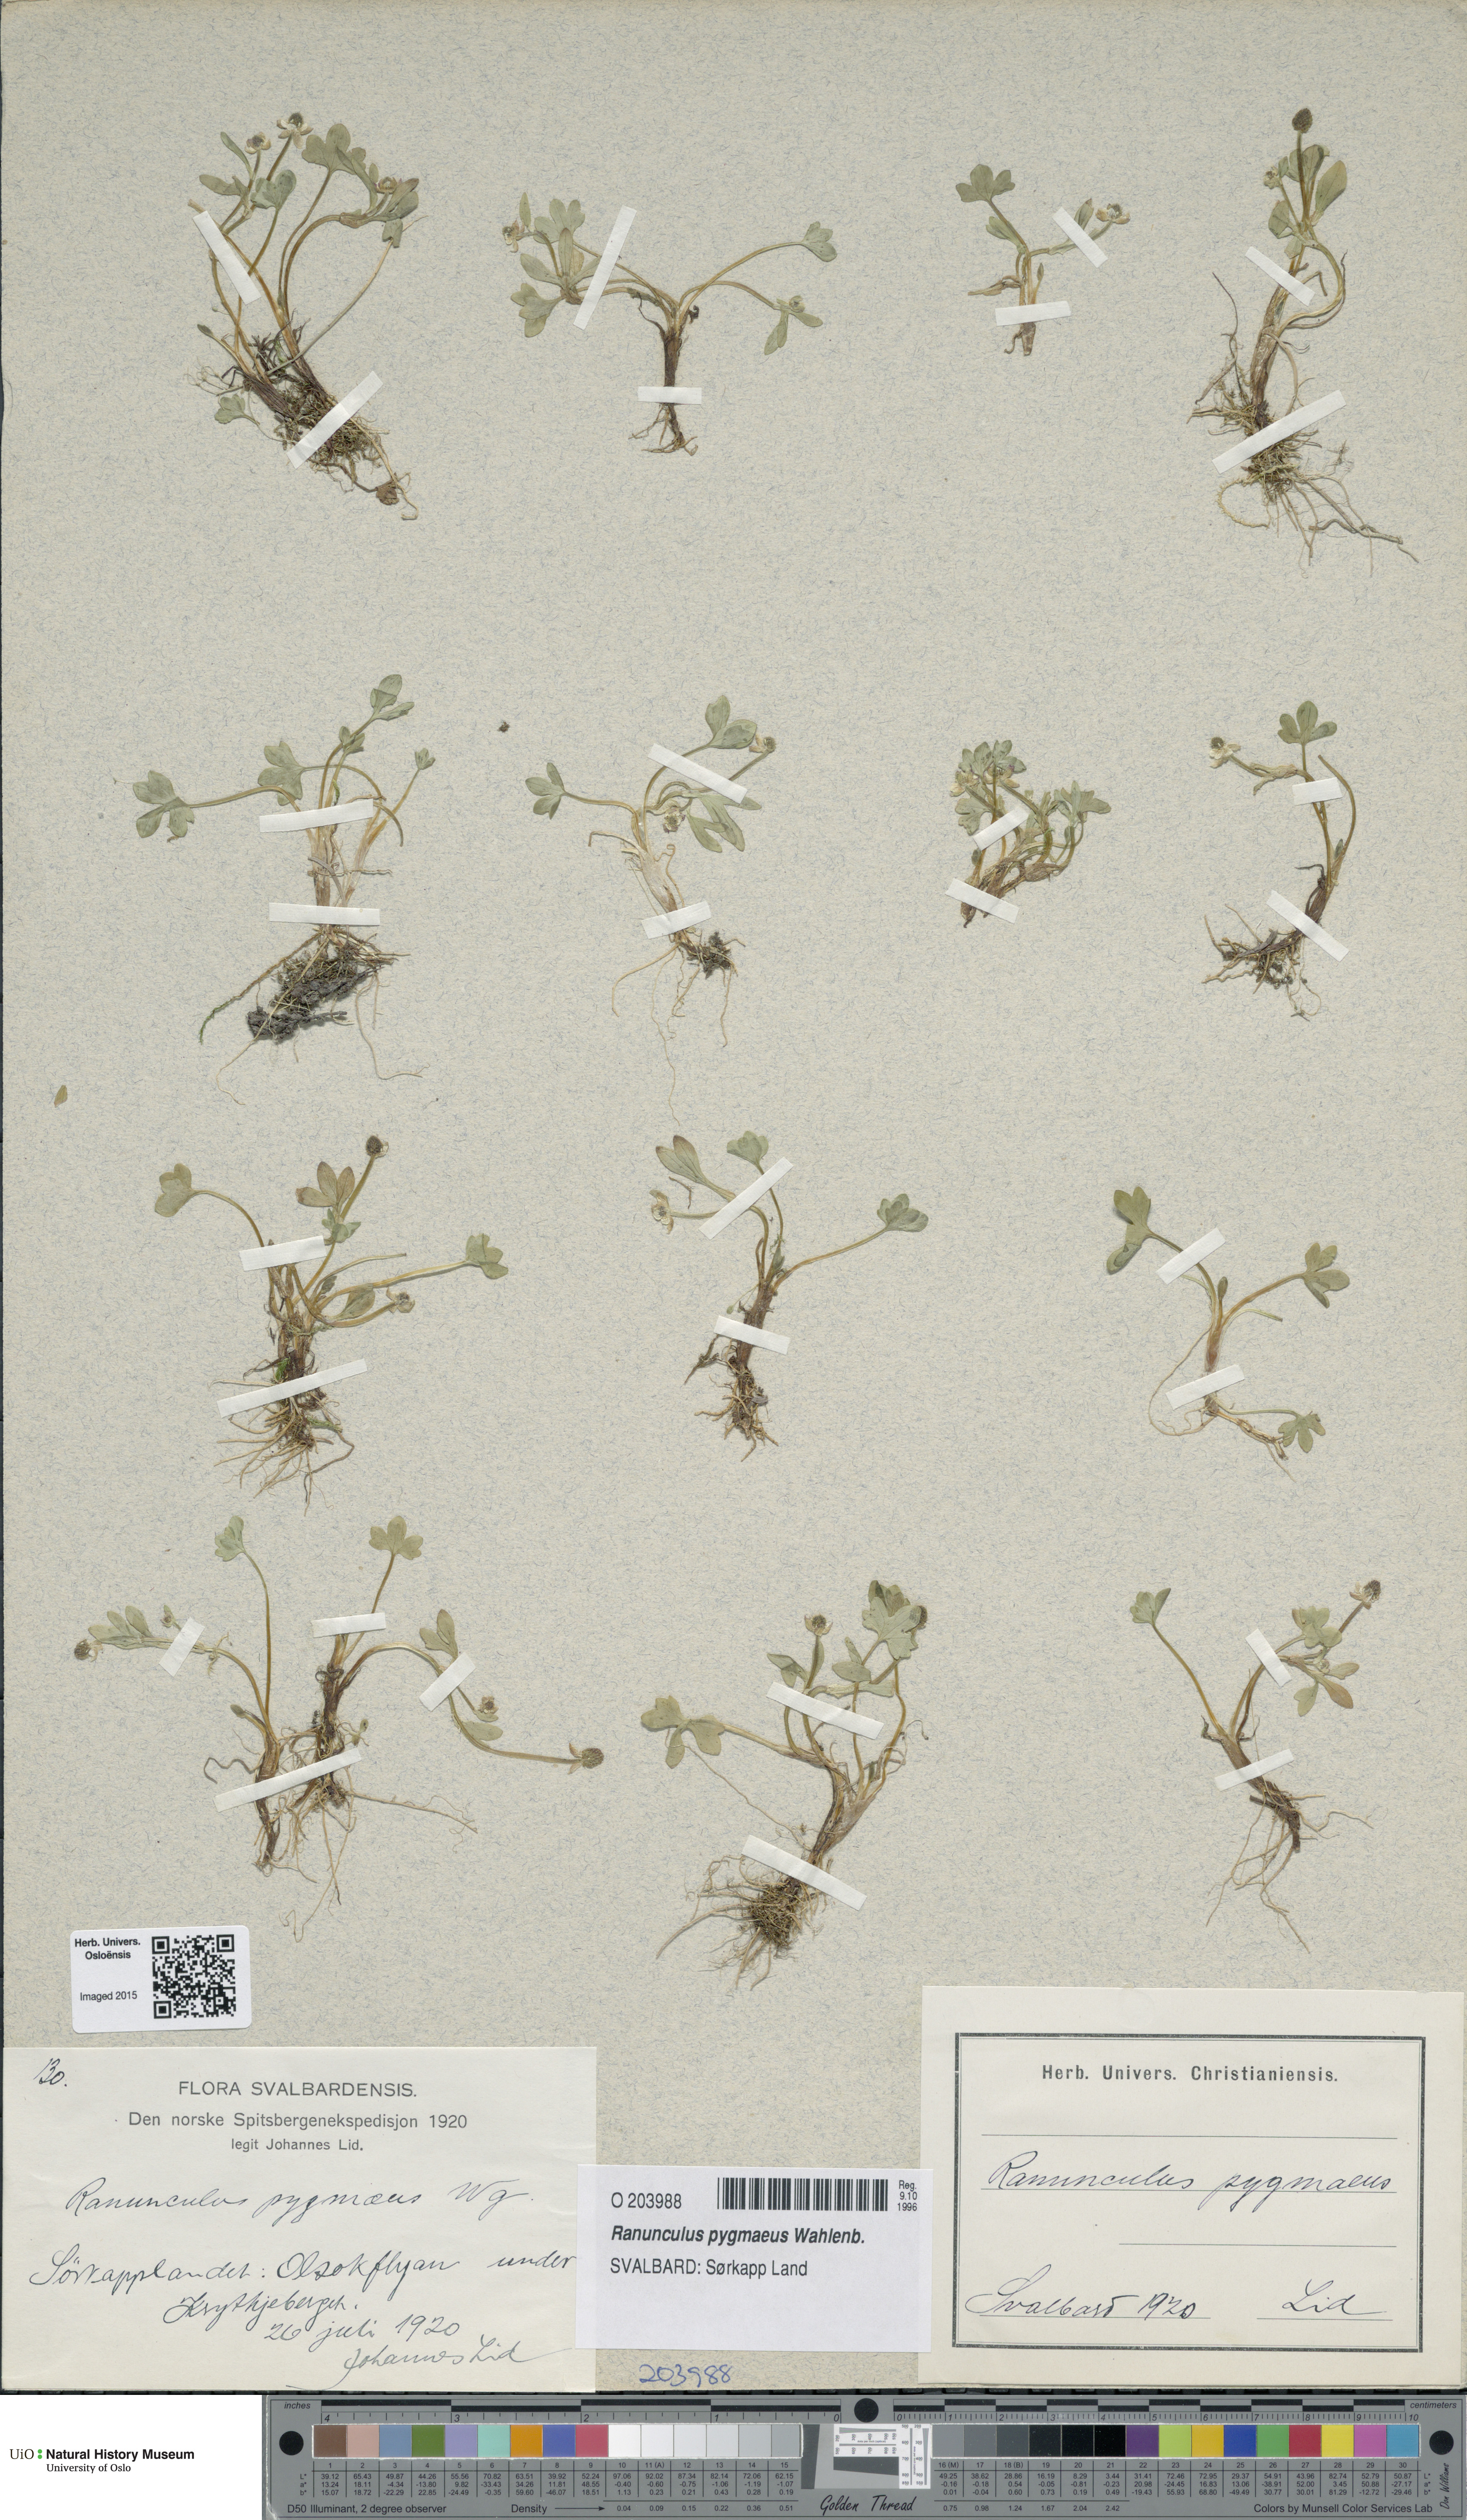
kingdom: Plantae
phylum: Tracheophyta
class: Magnoliopsida
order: Ranunculales
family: Ranunculaceae
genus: Ranunculus
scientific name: Ranunculus pygmaeus
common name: Dwarf buttercup
